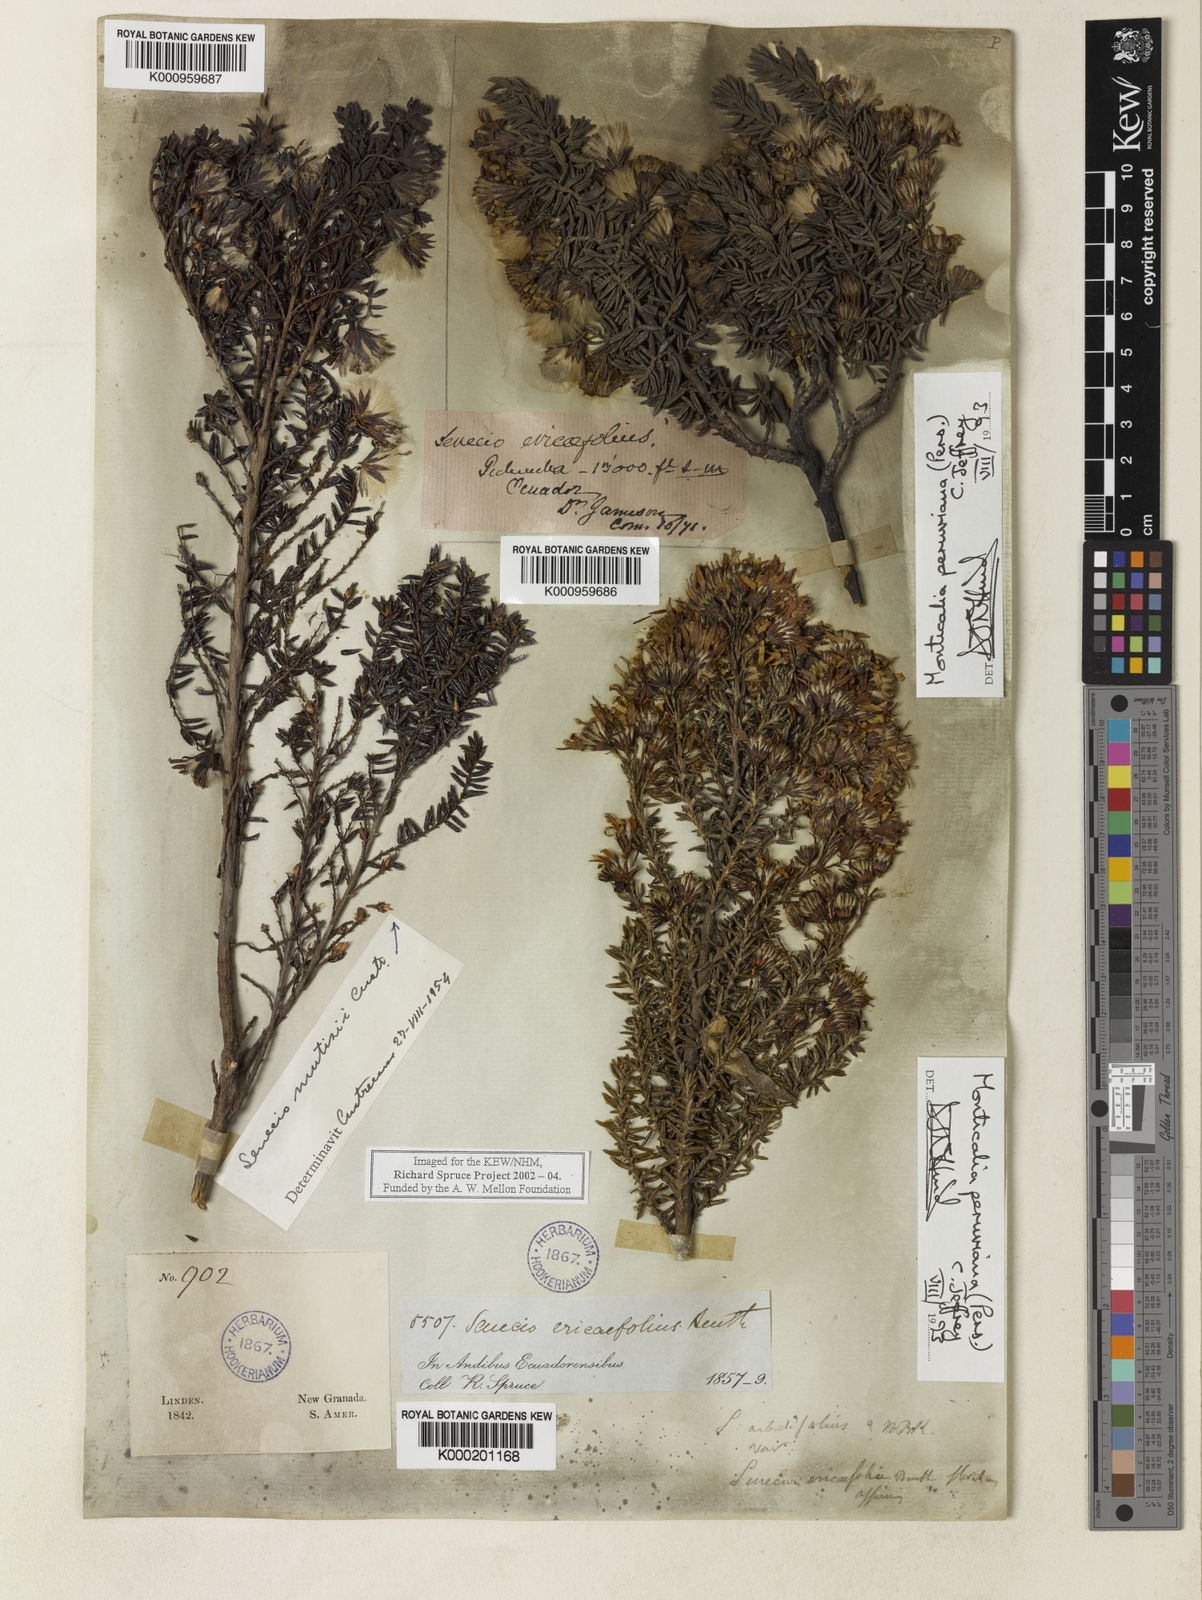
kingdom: Plantae
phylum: Tracheophyta
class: Magnoliopsida
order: Asterales
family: Asteraceae
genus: Monticalia
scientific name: Monticalia peruviana
